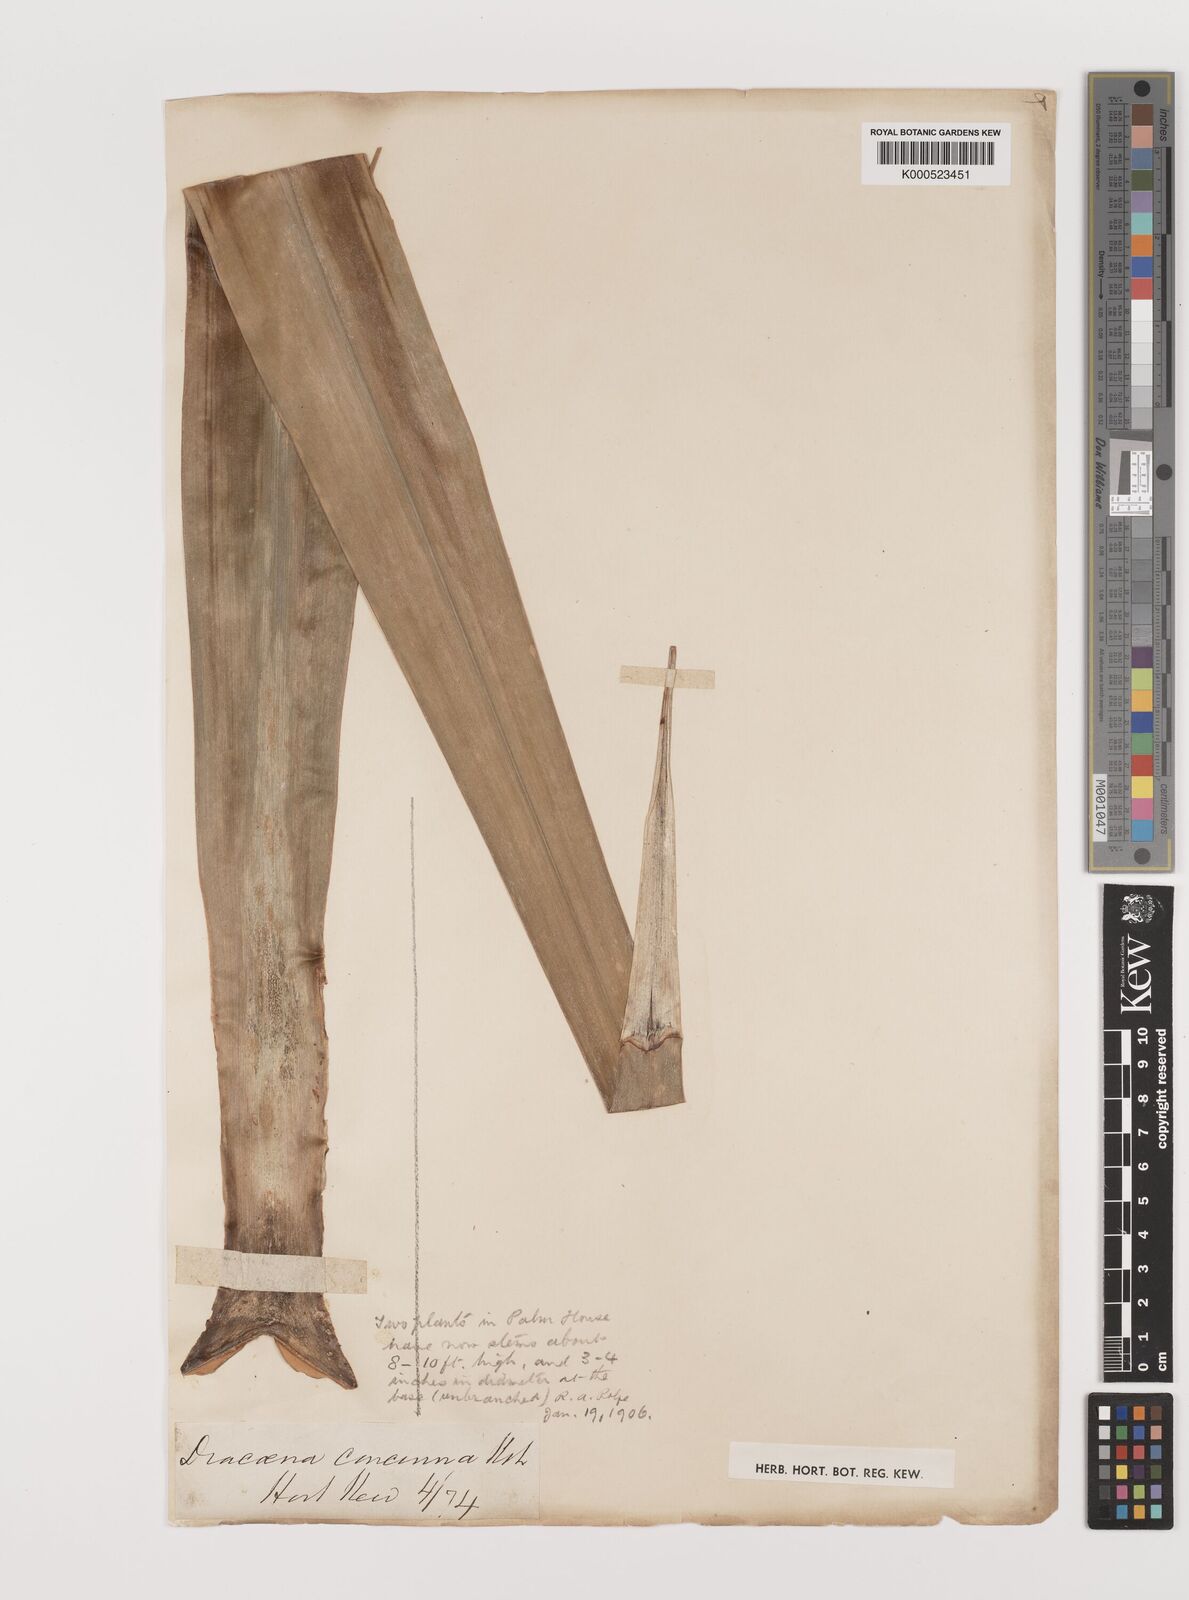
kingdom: Plantae
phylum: Tracheophyta
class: Liliopsida
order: Asparagales
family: Asparagaceae
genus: Dracaena
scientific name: Dracaena concinna
